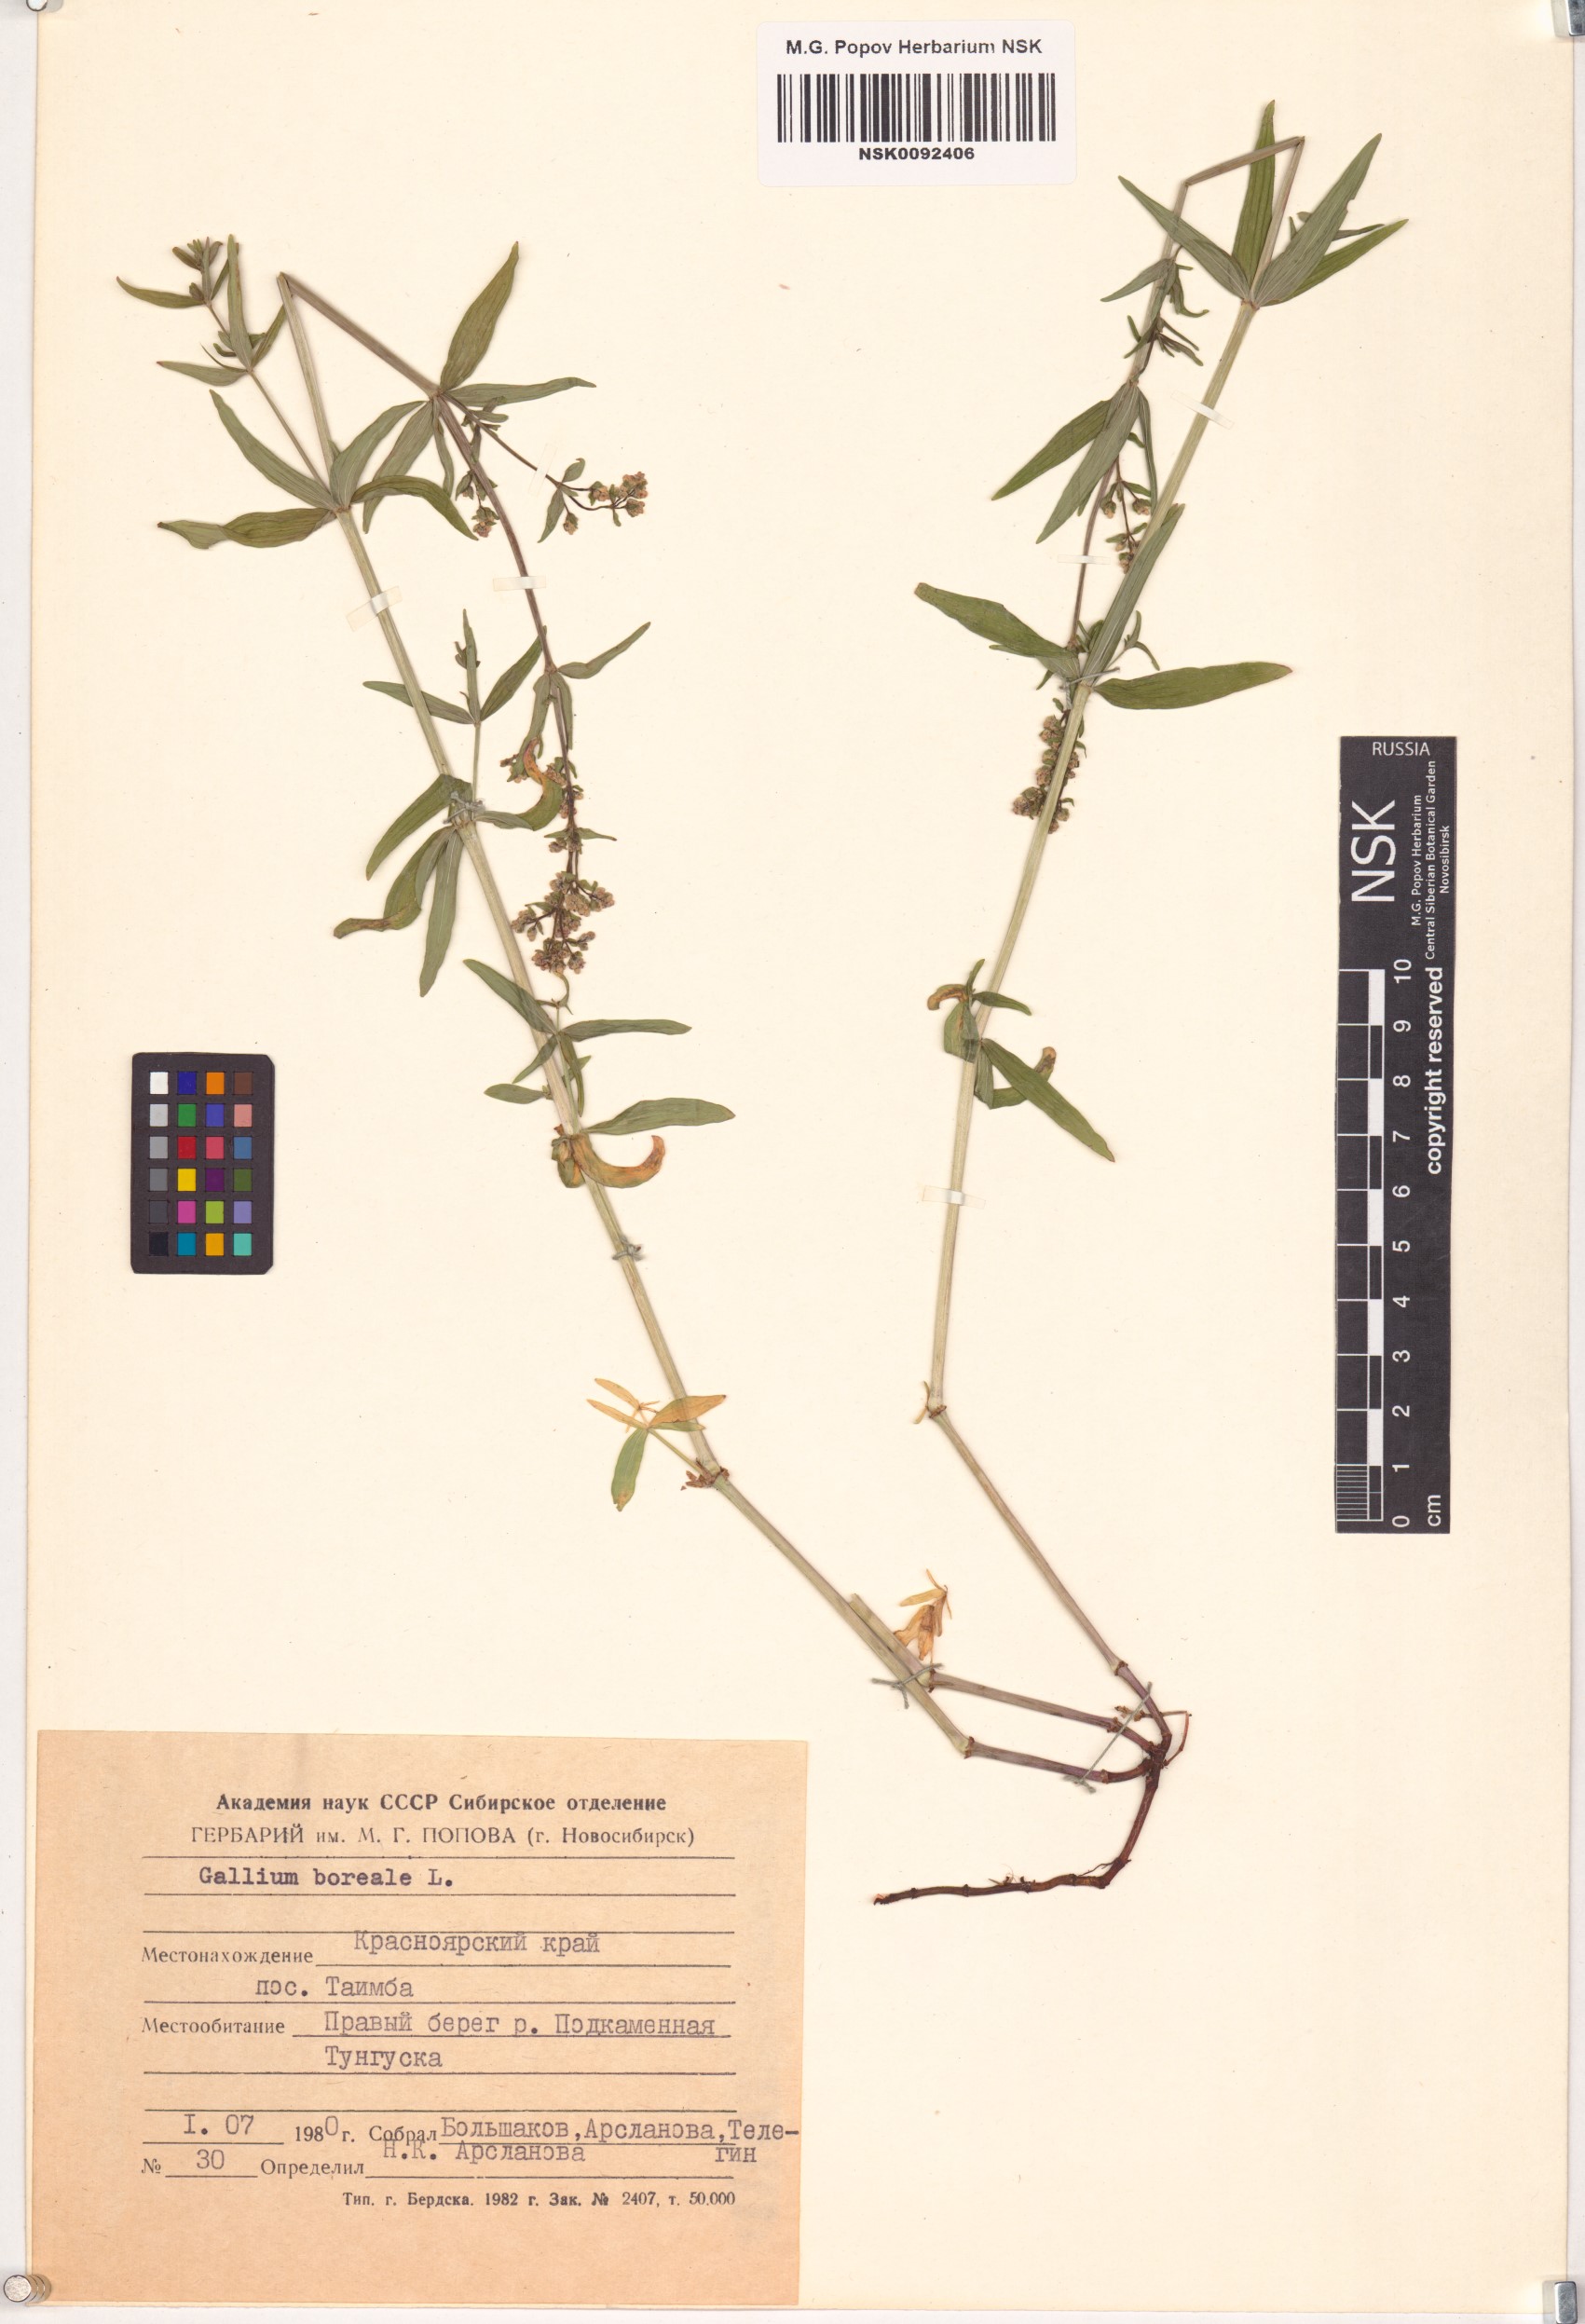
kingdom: Plantae
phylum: Tracheophyta
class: Magnoliopsida
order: Gentianales
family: Rubiaceae
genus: Galium
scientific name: Galium boreale
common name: Northern bedstraw
